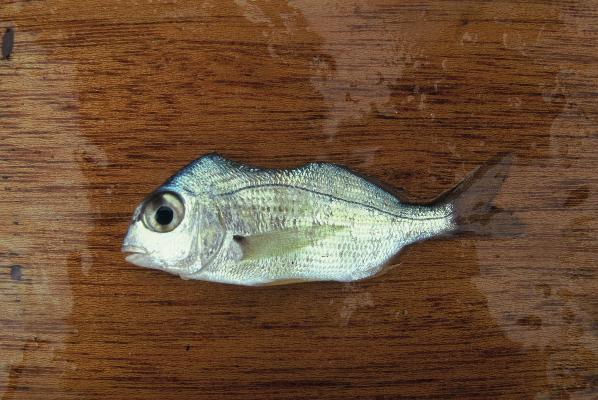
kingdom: Animalia
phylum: Chordata
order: Perciformes
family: Sparidae
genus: Rhabdosargus
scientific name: Rhabdosargus holubi
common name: Cape stumpnose
